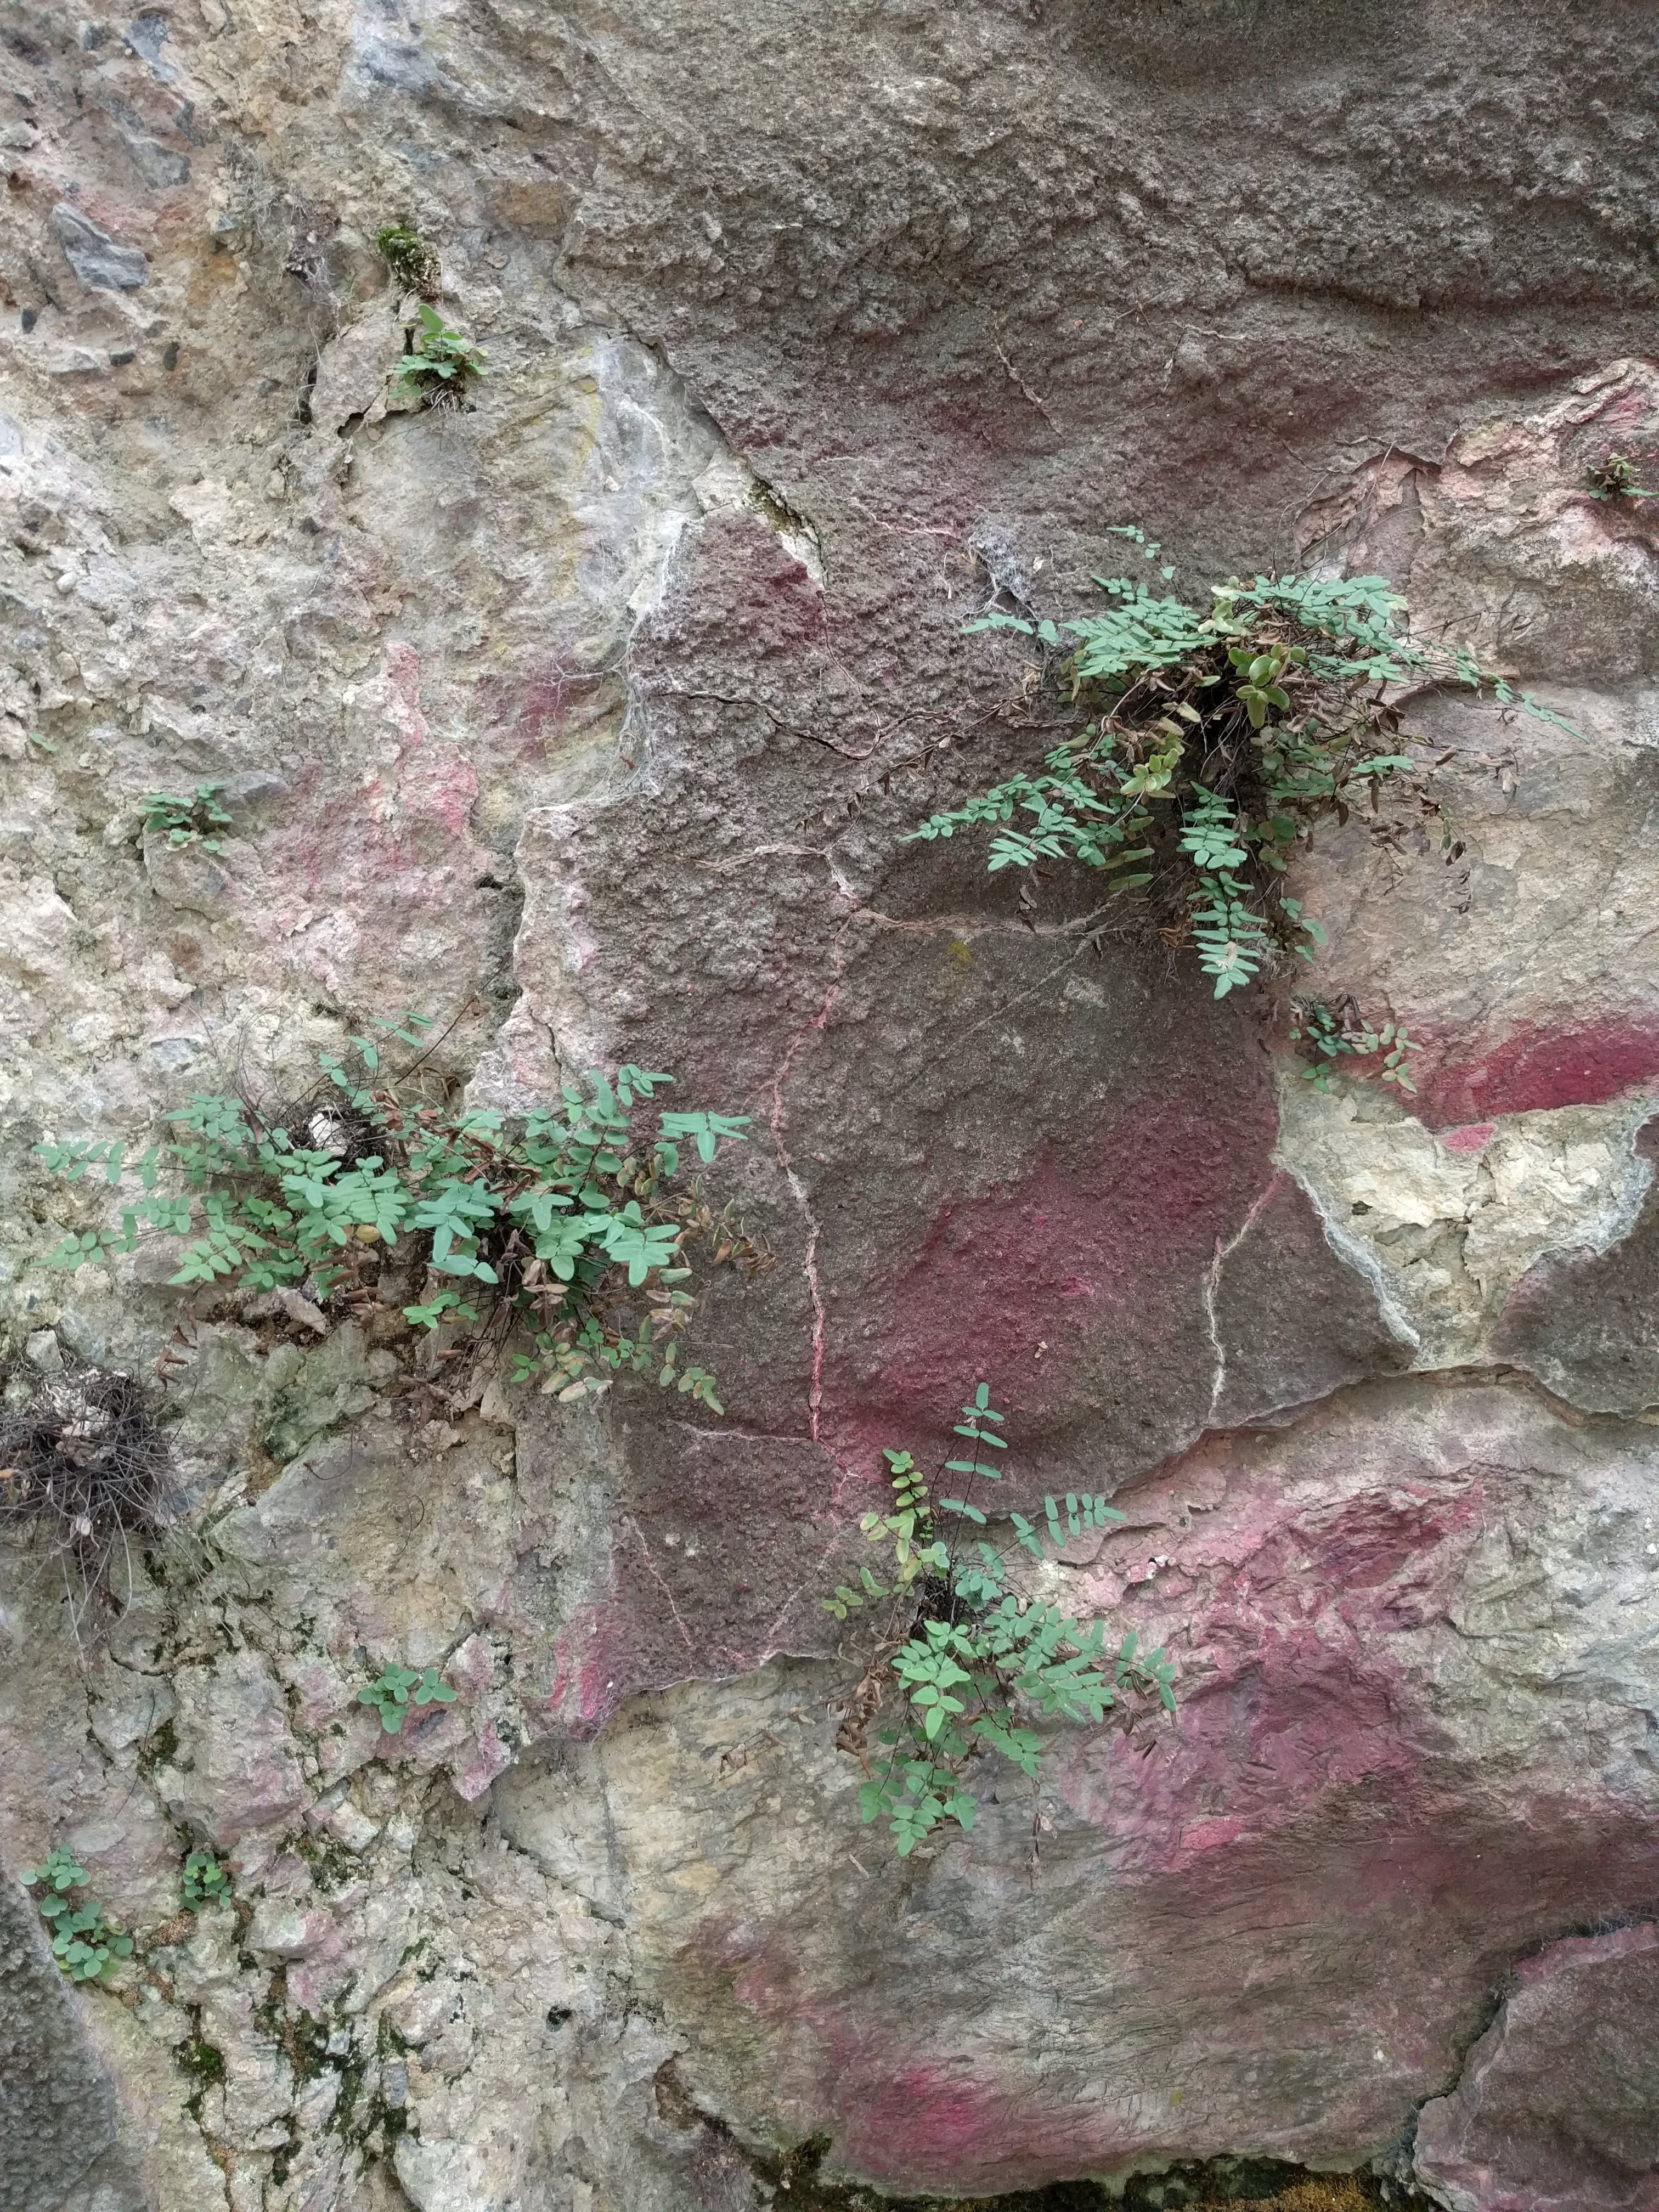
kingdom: Plantae
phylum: Tracheophyta
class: Polypodiopsida
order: Polypodiales
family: Pteridaceae
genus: Pellaea
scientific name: Pellaea atropurpurea
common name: Hairy cliffbrake
